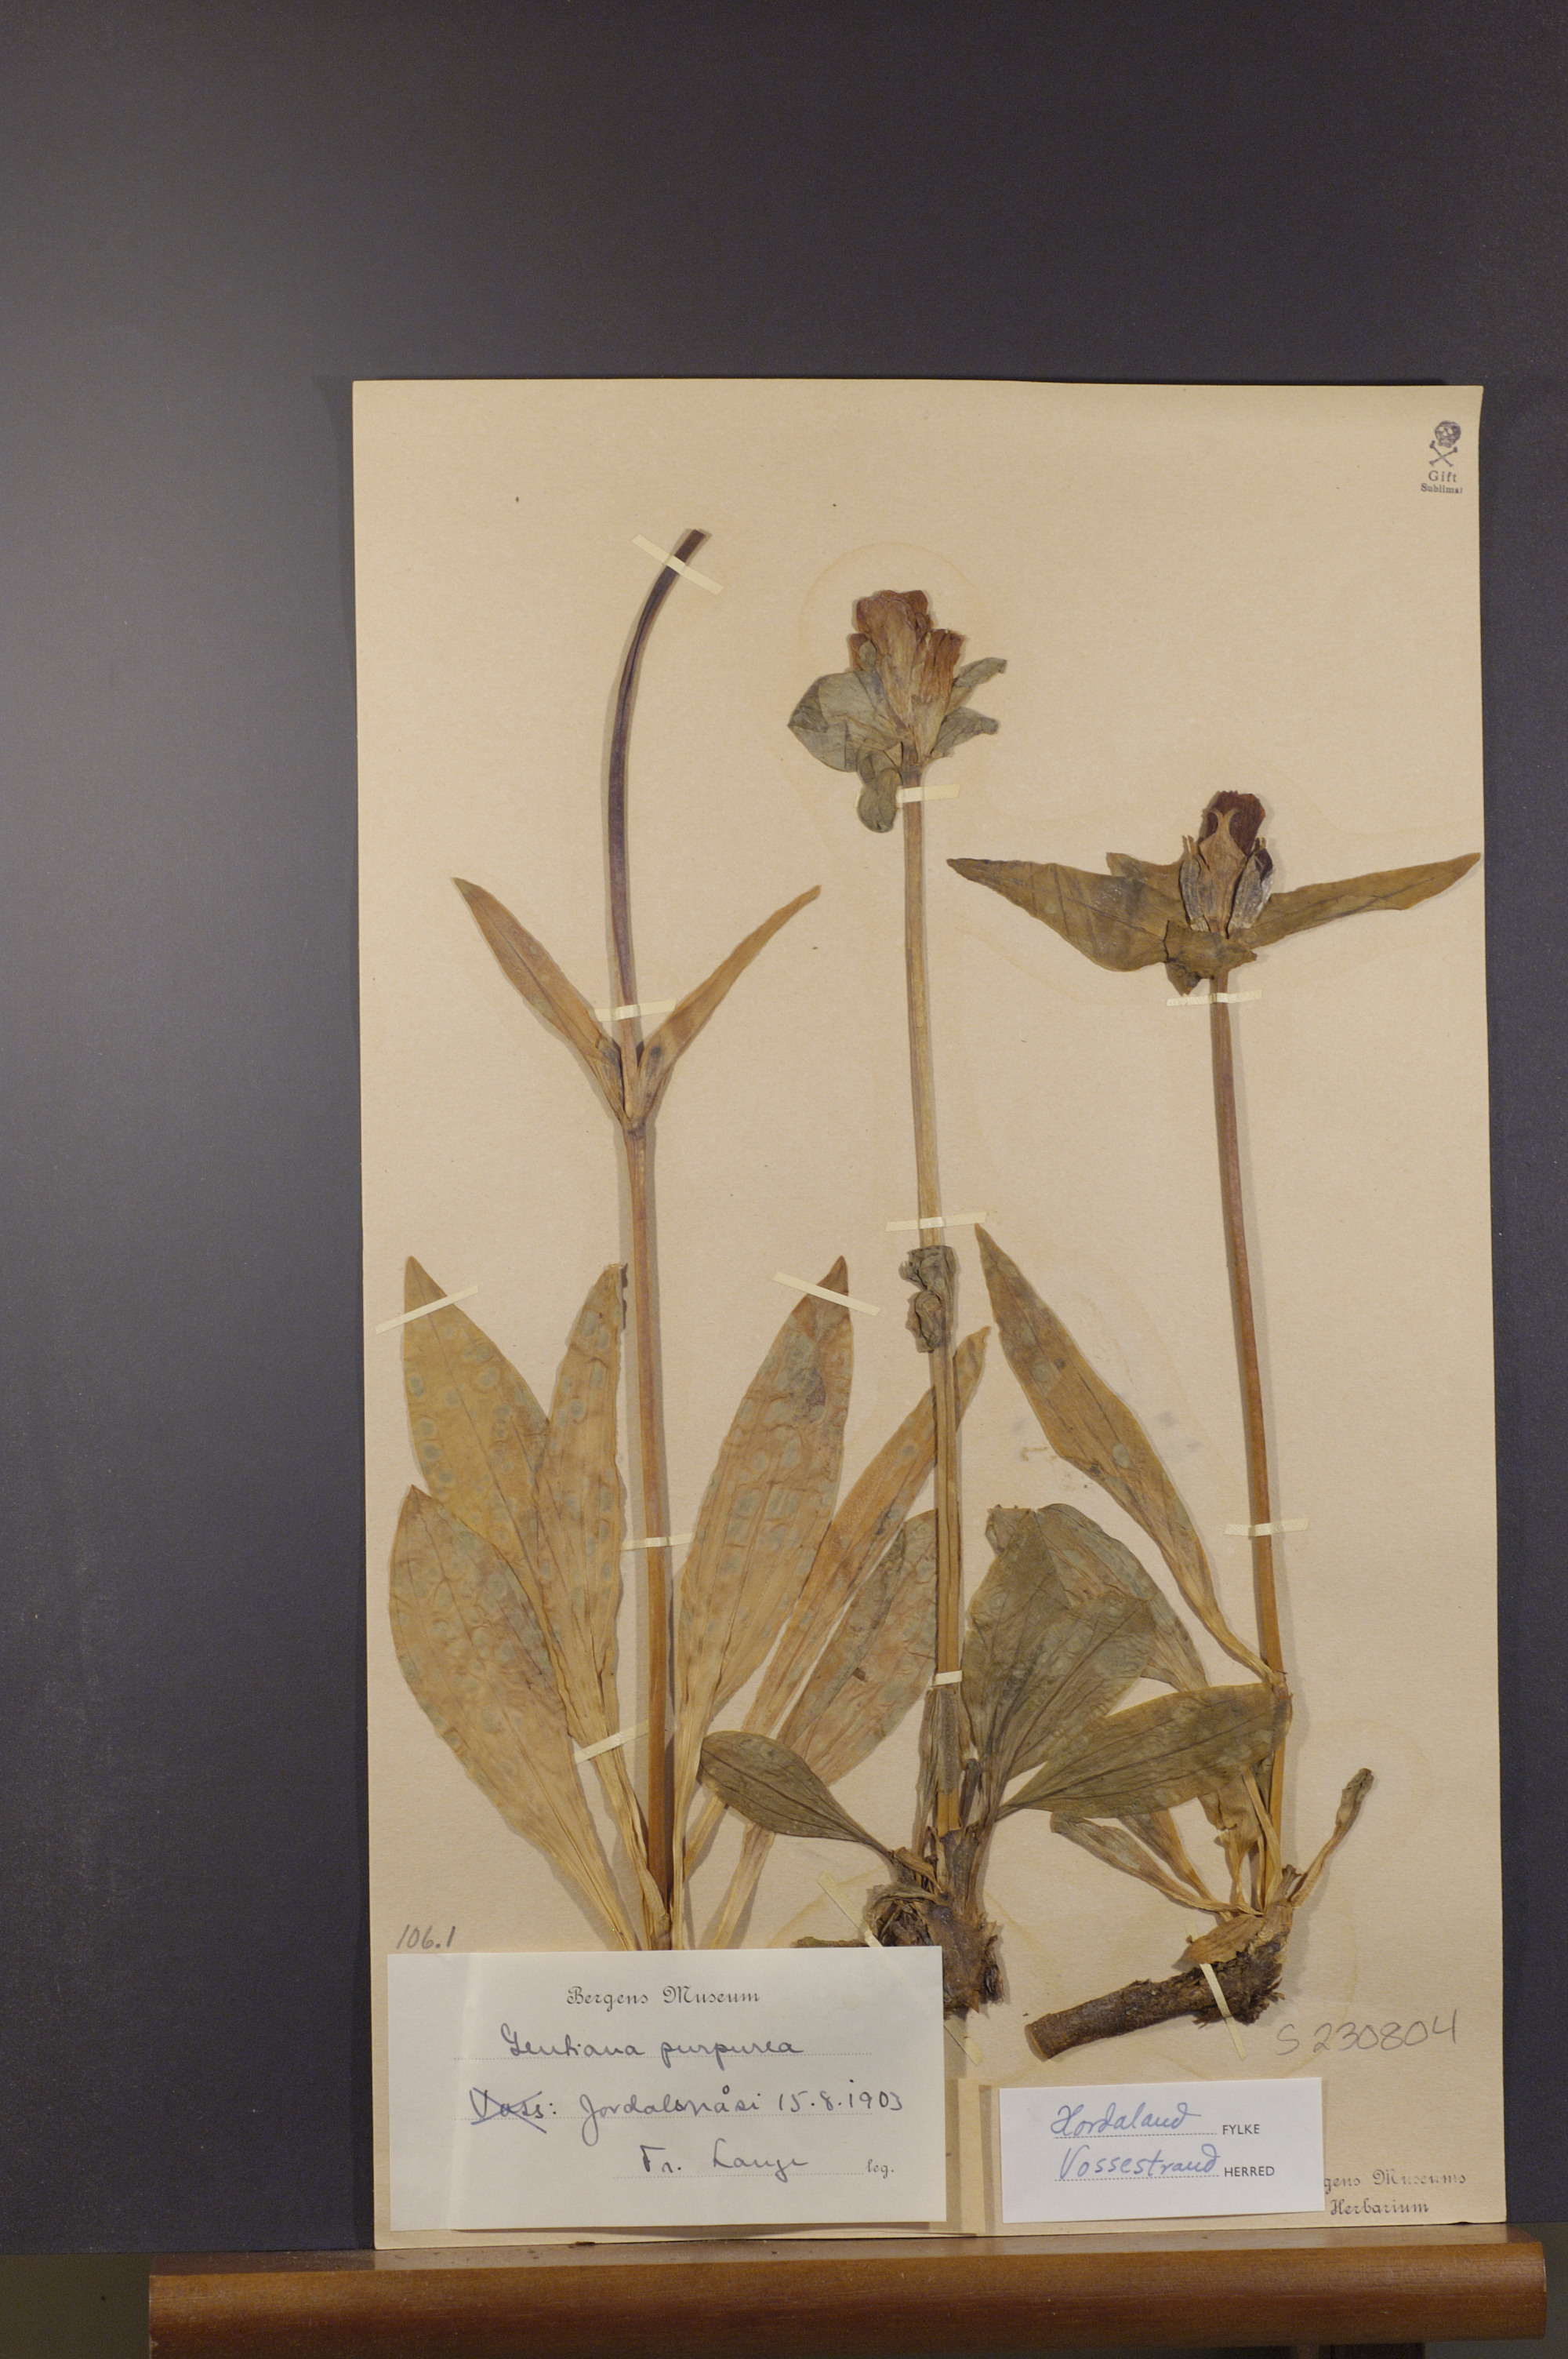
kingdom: Plantae
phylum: Tracheophyta
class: Magnoliopsida
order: Gentianales
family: Gentianaceae
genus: Gentiana
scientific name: Gentiana purpurea
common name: Purple gentian
